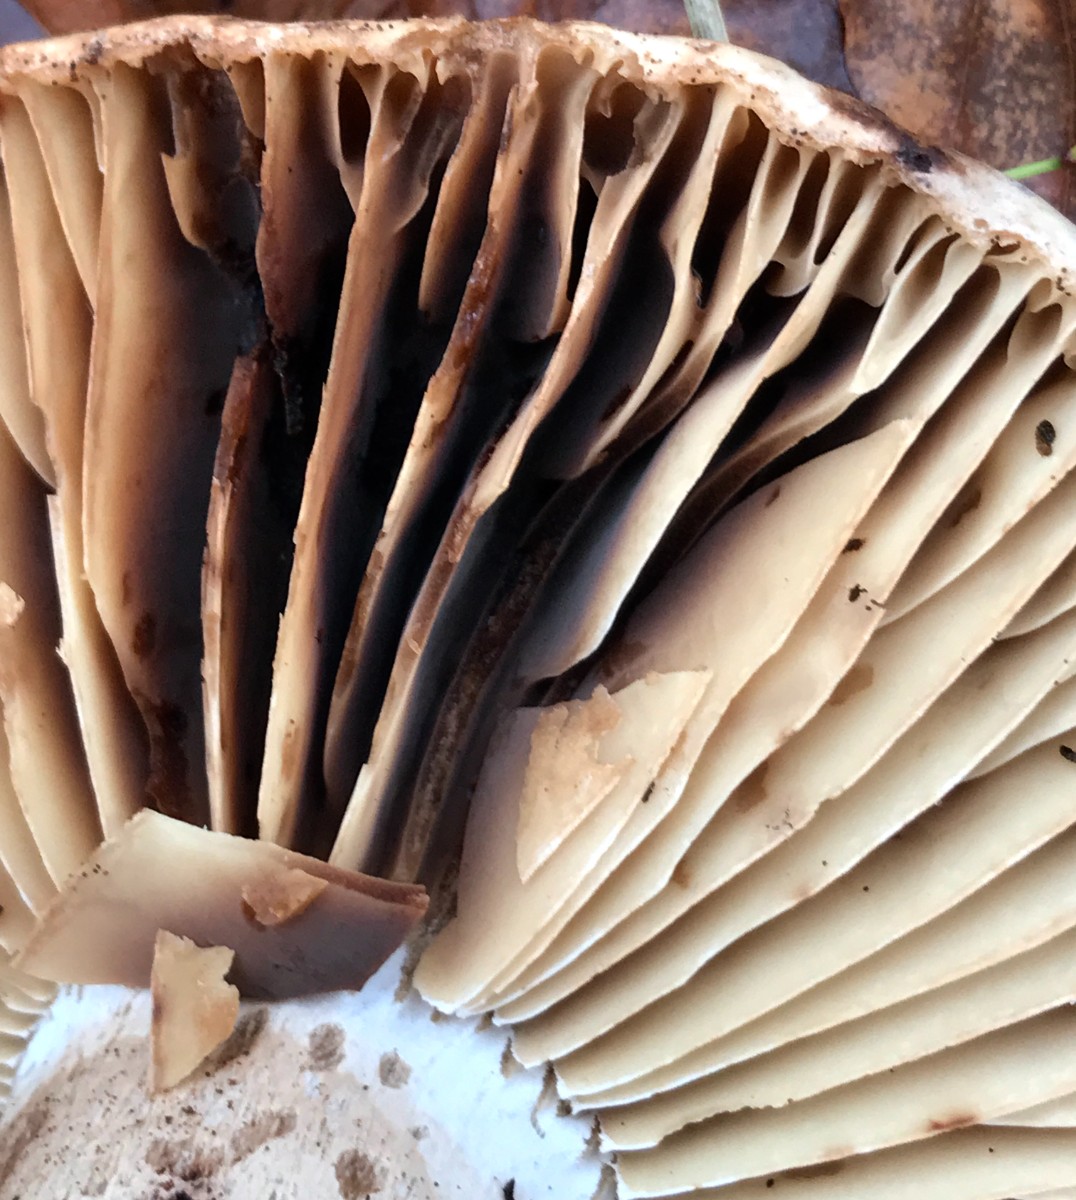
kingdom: Fungi
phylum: Basidiomycota
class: Agaricomycetes
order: Russulales
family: Russulaceae
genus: Russula
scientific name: Russula adusta
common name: sværtende skørhat
